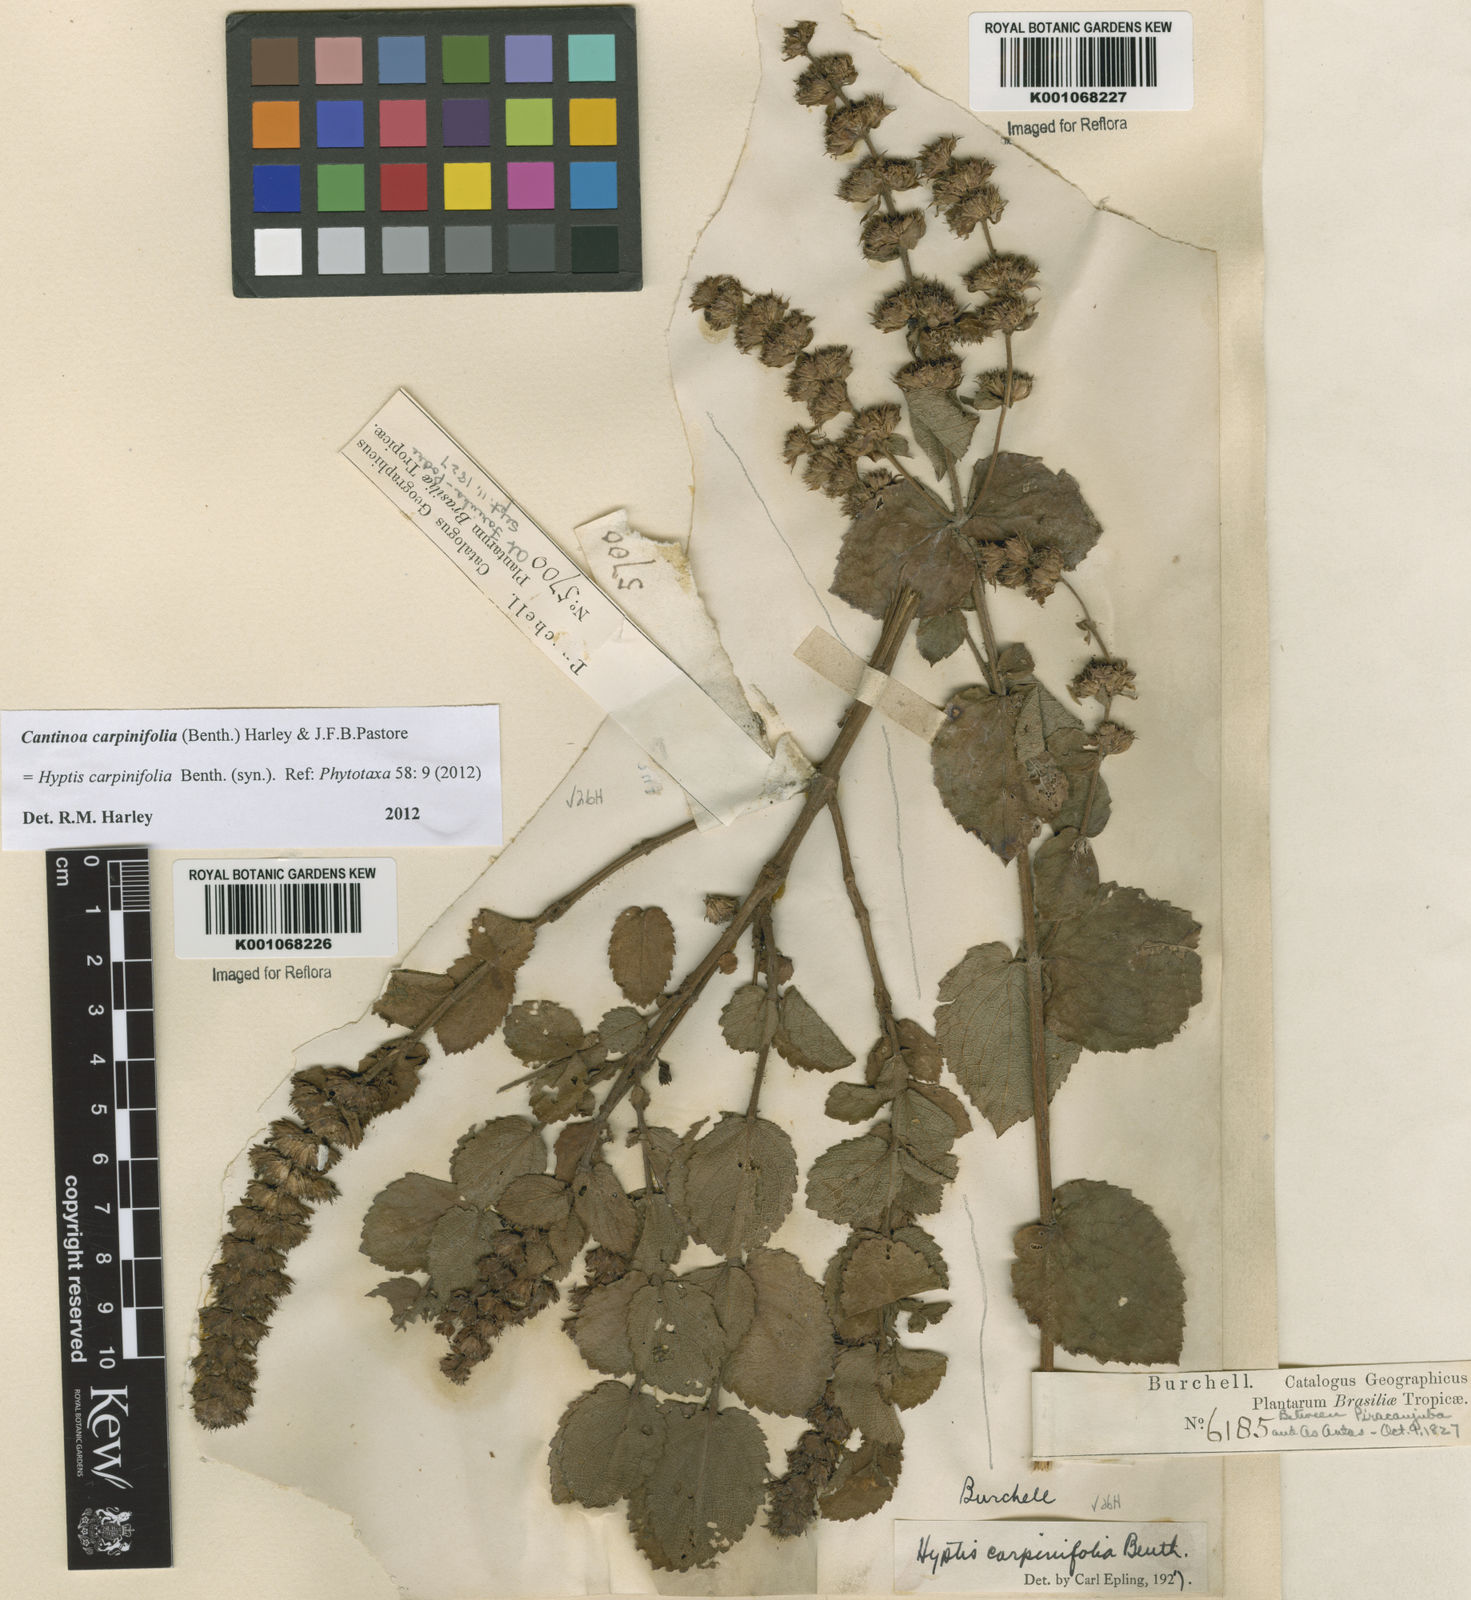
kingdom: Plantae
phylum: Tracheophyta
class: Magnoliopsida
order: Lamiales
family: Lamiaceae
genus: Cantinoa
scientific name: Cantinoa carpinifolia
